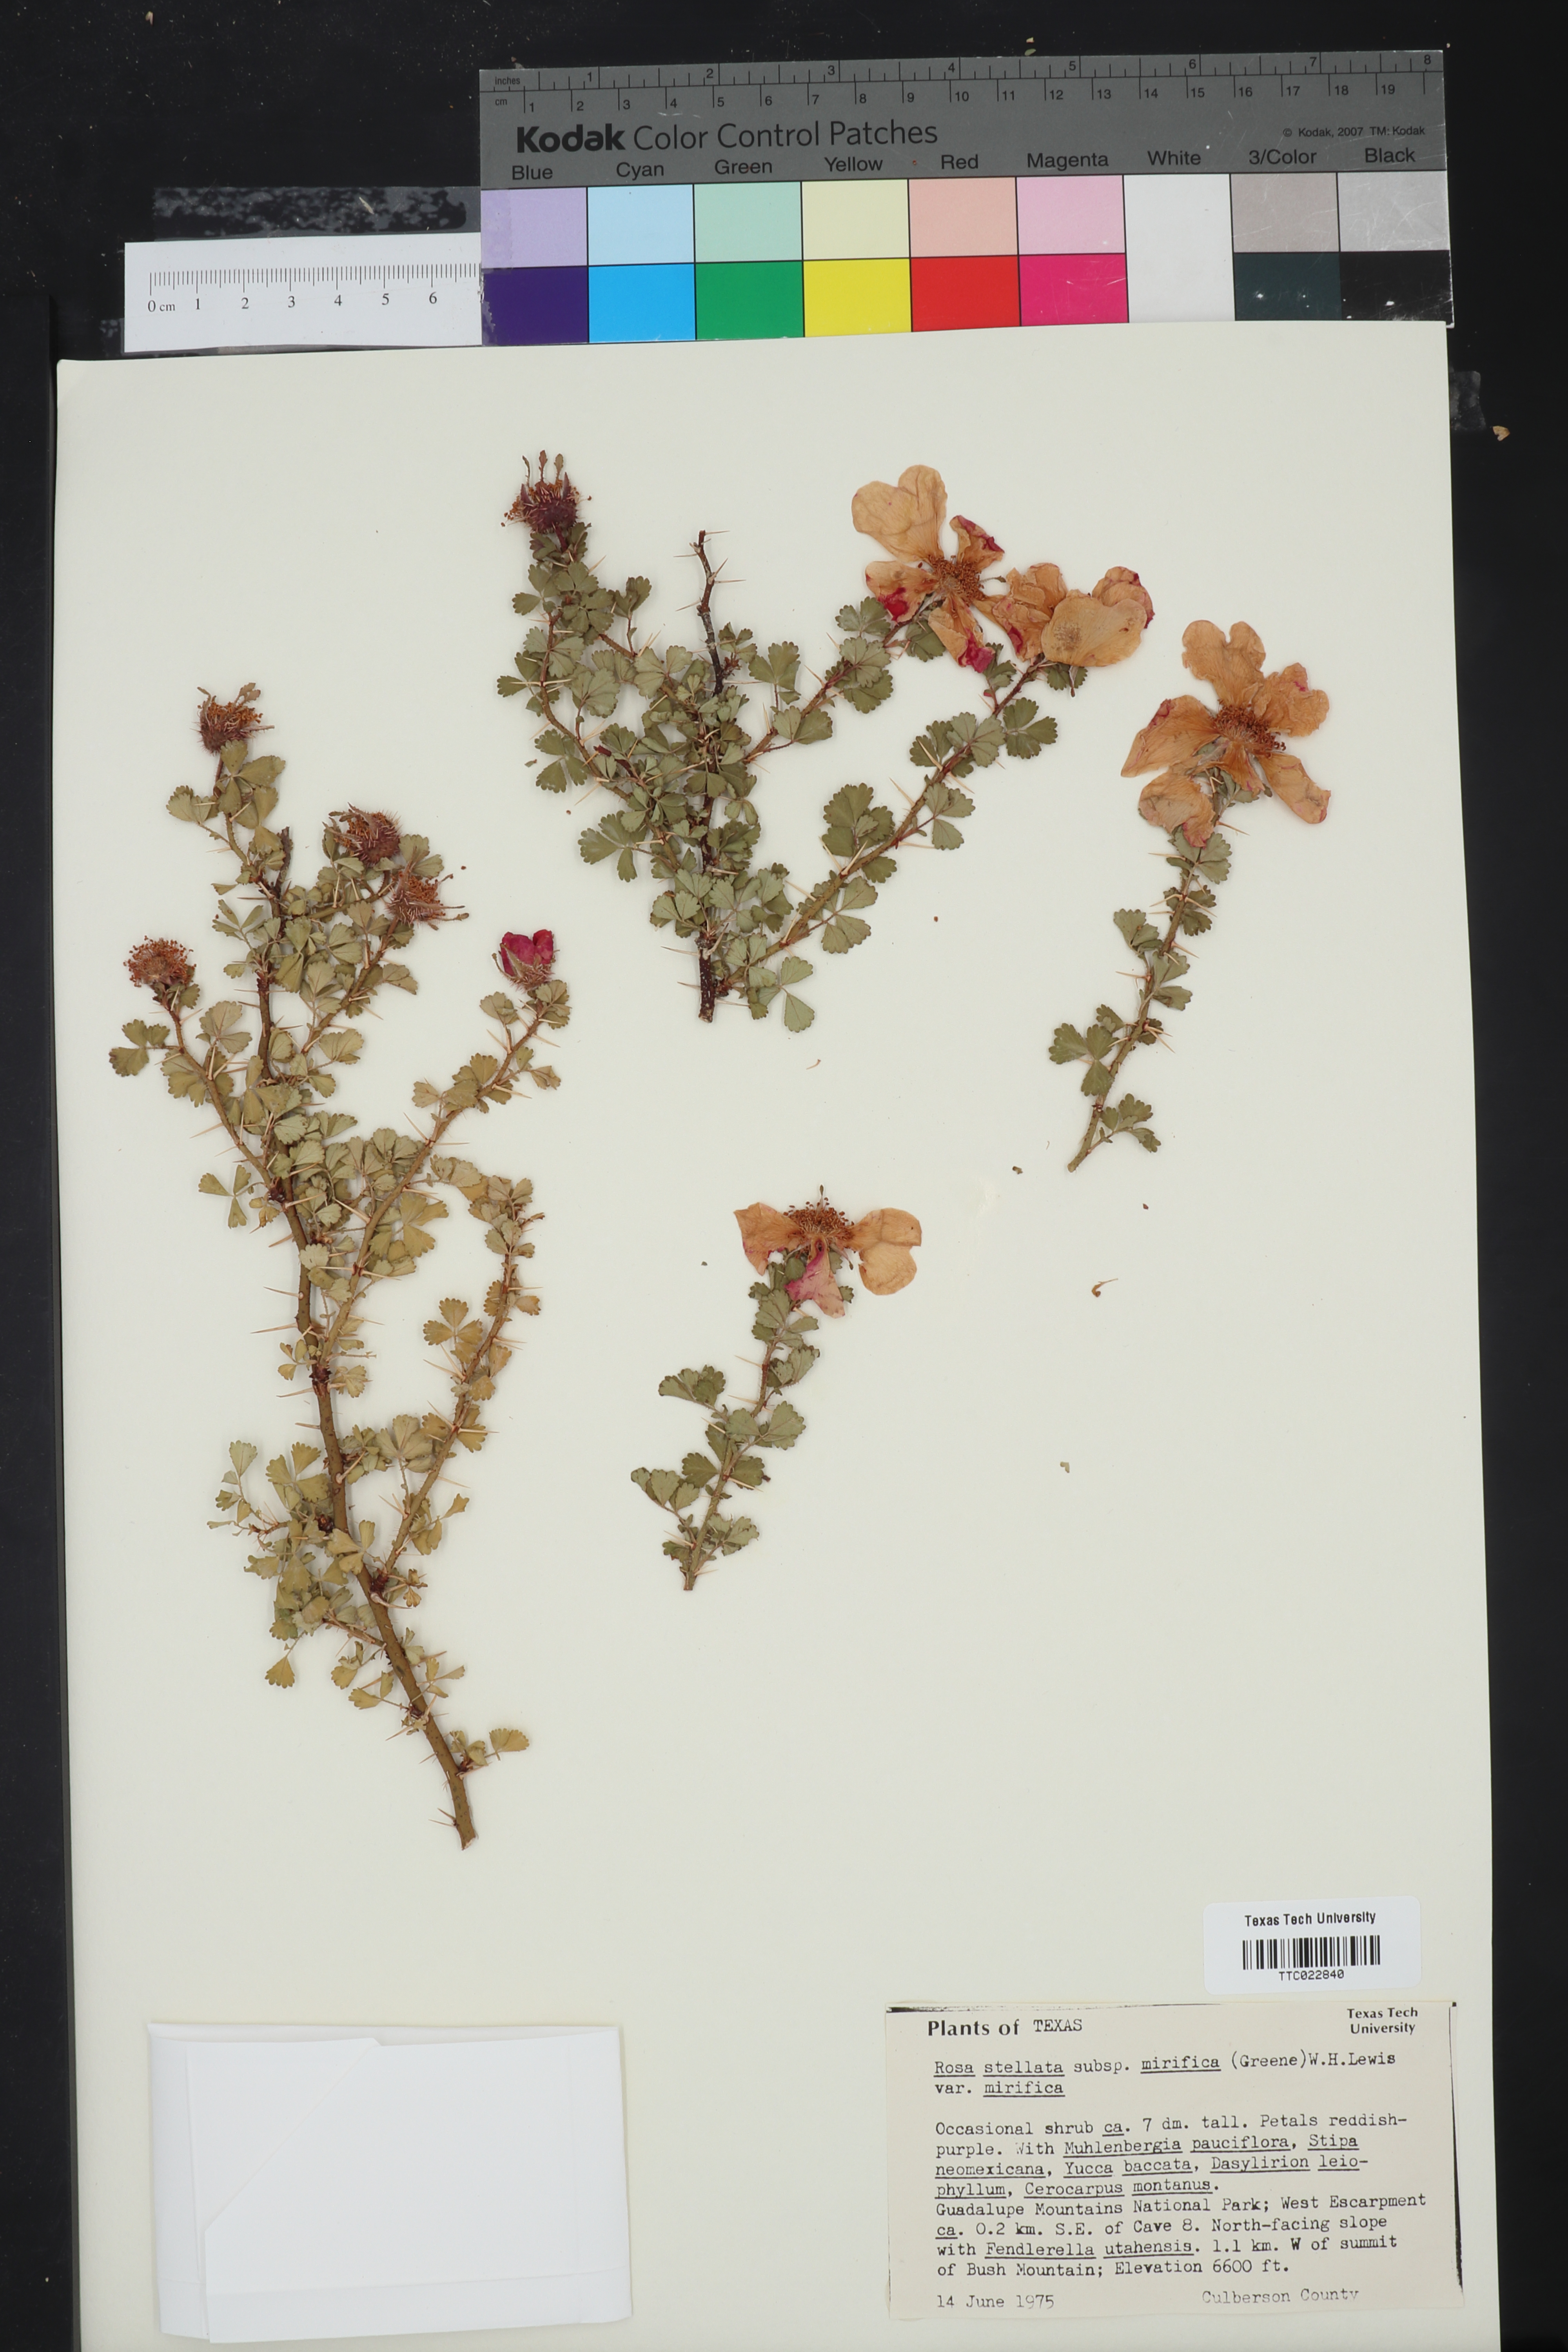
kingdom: Plantae
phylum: Tracheophyta
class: Magnoliopsida
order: Rosales
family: Rosaceae
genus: Rosa
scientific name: Rosa stellata
